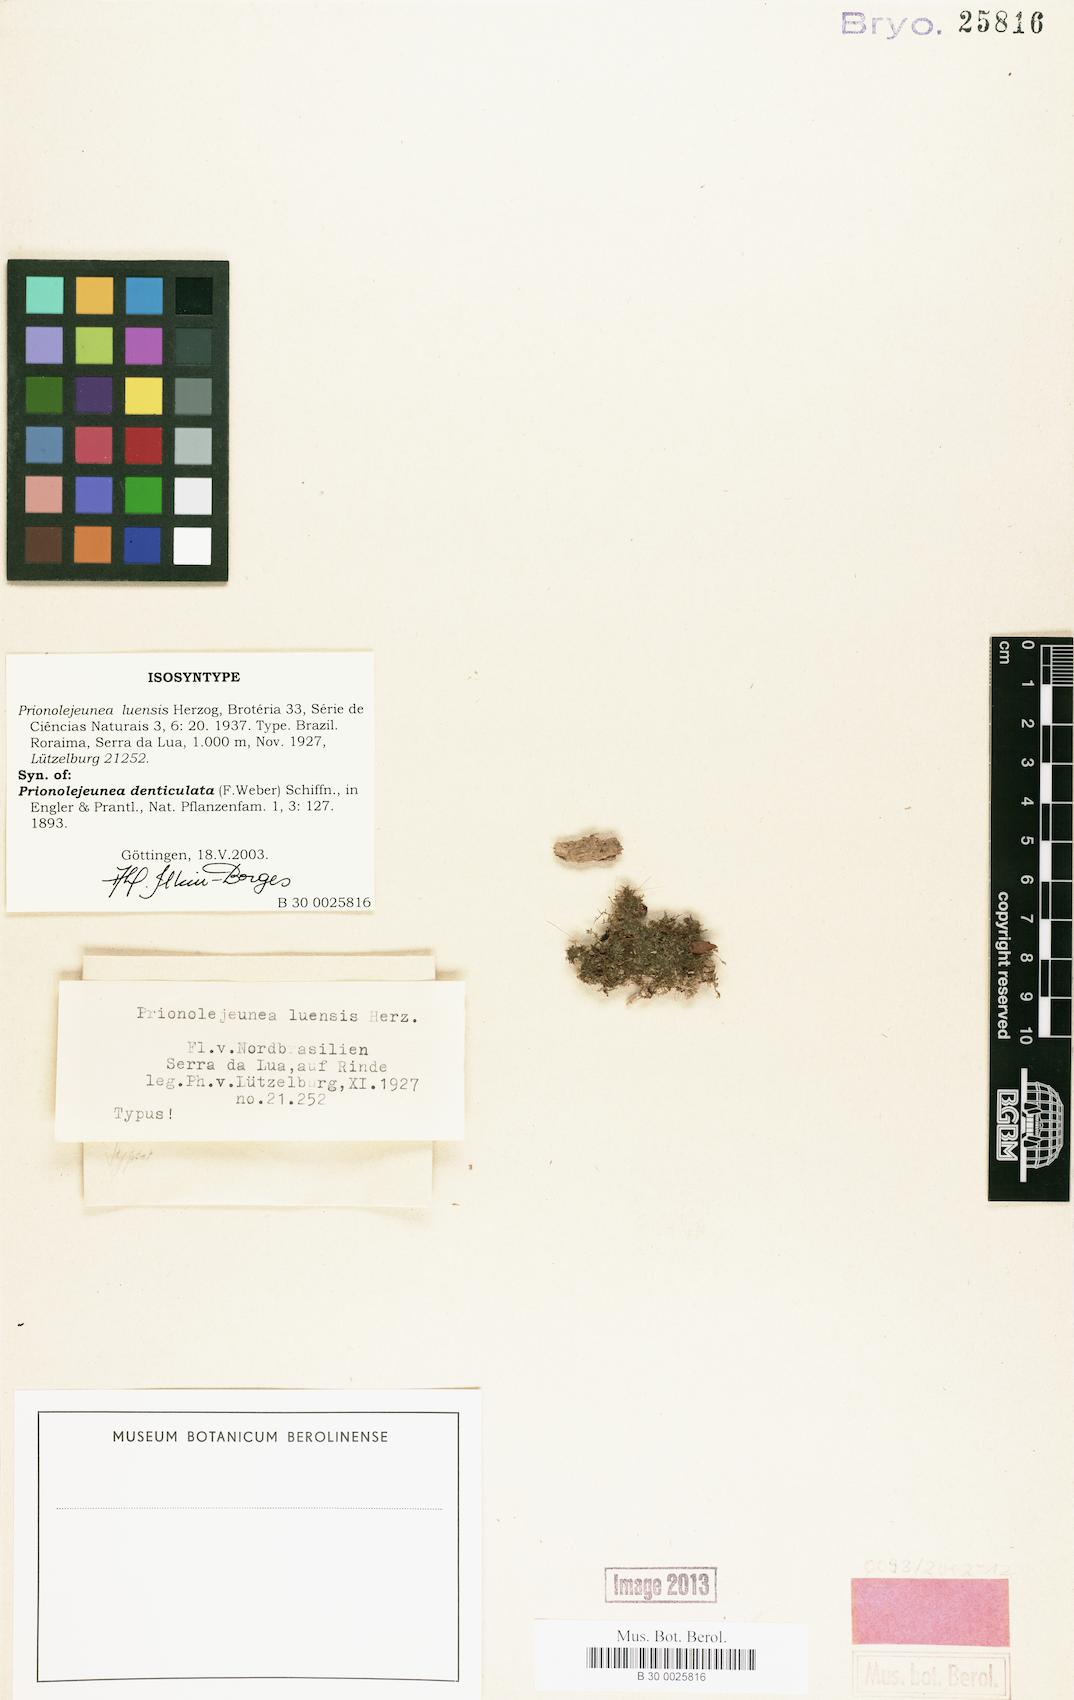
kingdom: Plantae
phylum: Marchantiophyta
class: Jungermanniopsida
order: Porellales
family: Lejeuneaceae
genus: Prionolejeunea
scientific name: Prionolejeunea denticulata
